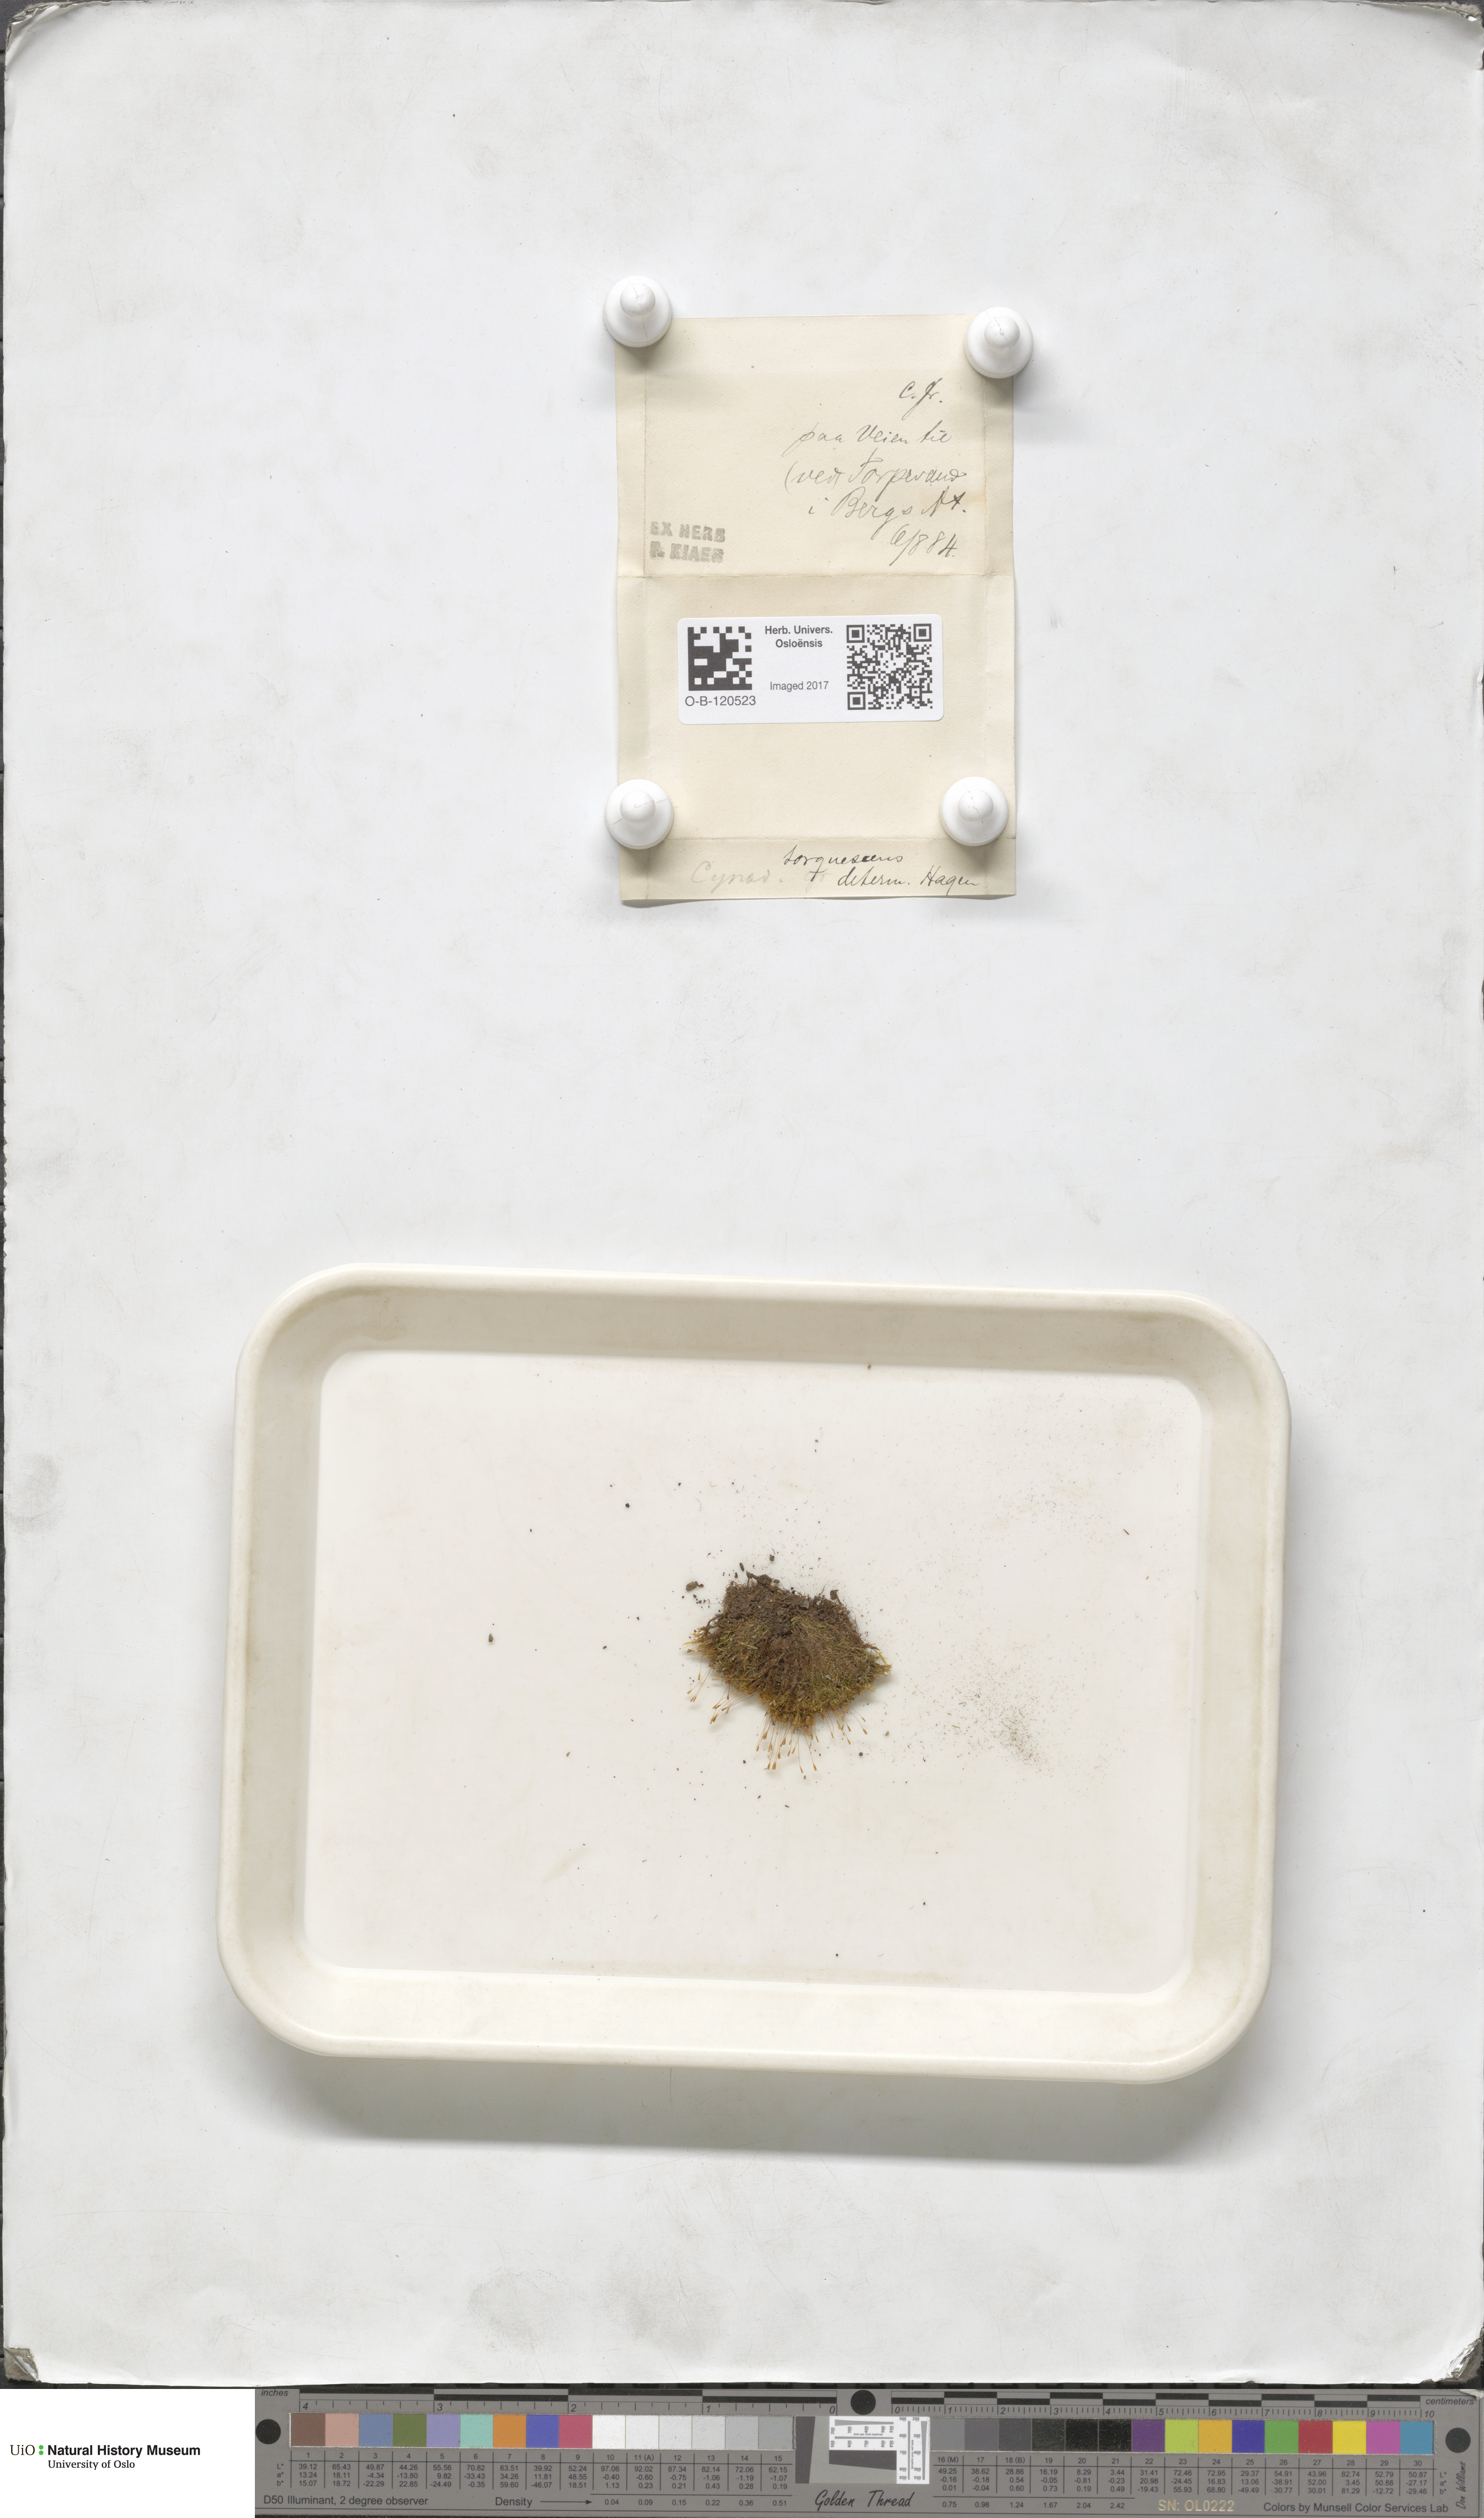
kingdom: Plantae
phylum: Bryophyta
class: Bryopsida
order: Dicranales
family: Rhabdoweisiaceae
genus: Cynodontium
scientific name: Cynodontium tenellum
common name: Delicate dogtooth moss
